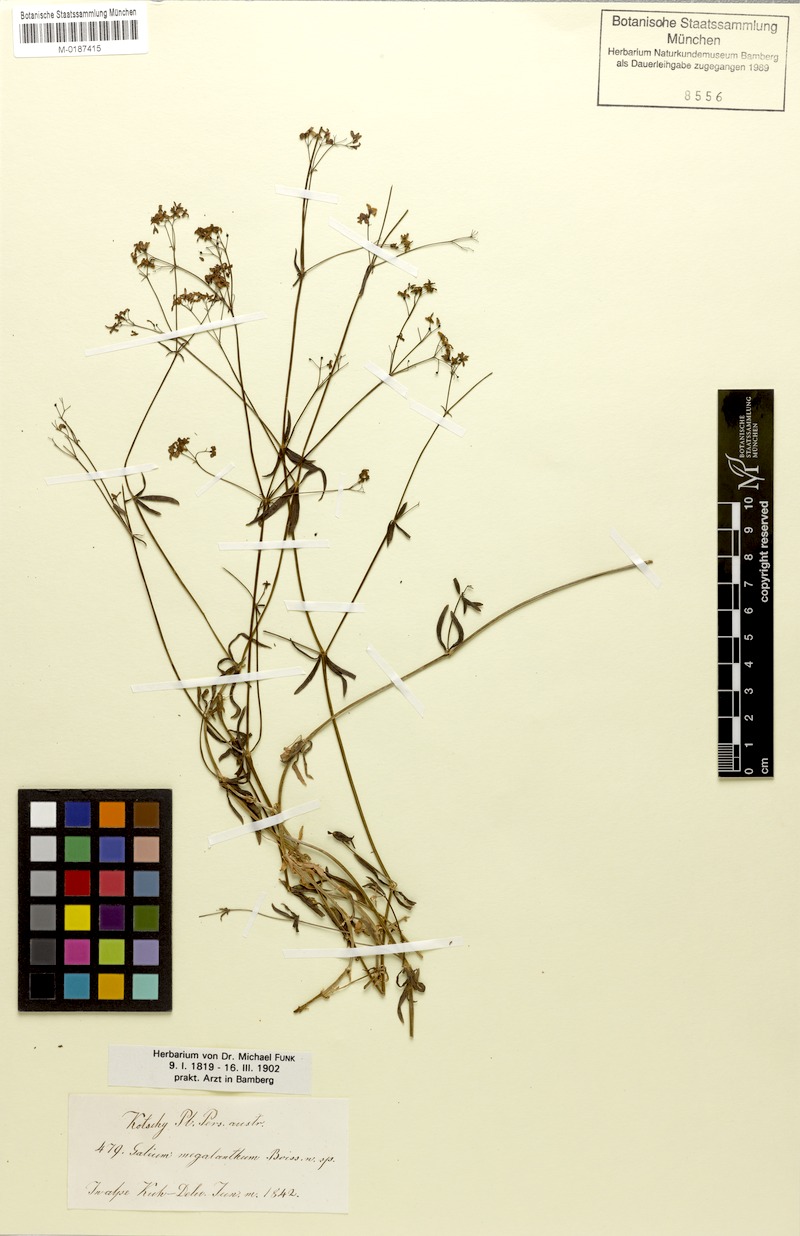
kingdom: Plantae
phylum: Tracheophyta
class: Magnoliopsida
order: Gentianales
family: Rubiaceae
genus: Galium
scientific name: Galium megalanthum
